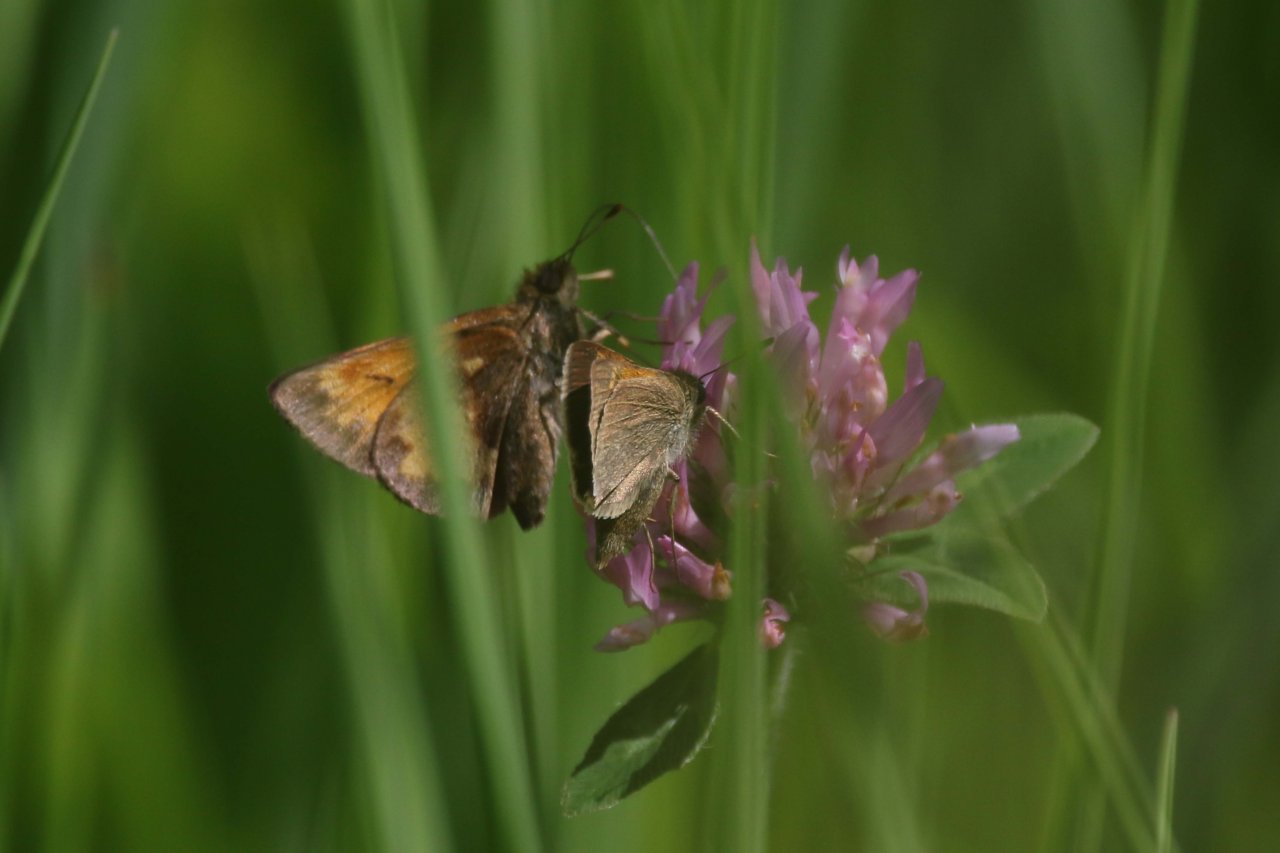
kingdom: Animalia
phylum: Arthropoda
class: Insecta
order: Lepidoptera
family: Hesperiidae
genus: Polites
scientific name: Polites themistocles
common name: Tawny-edged Skipper
